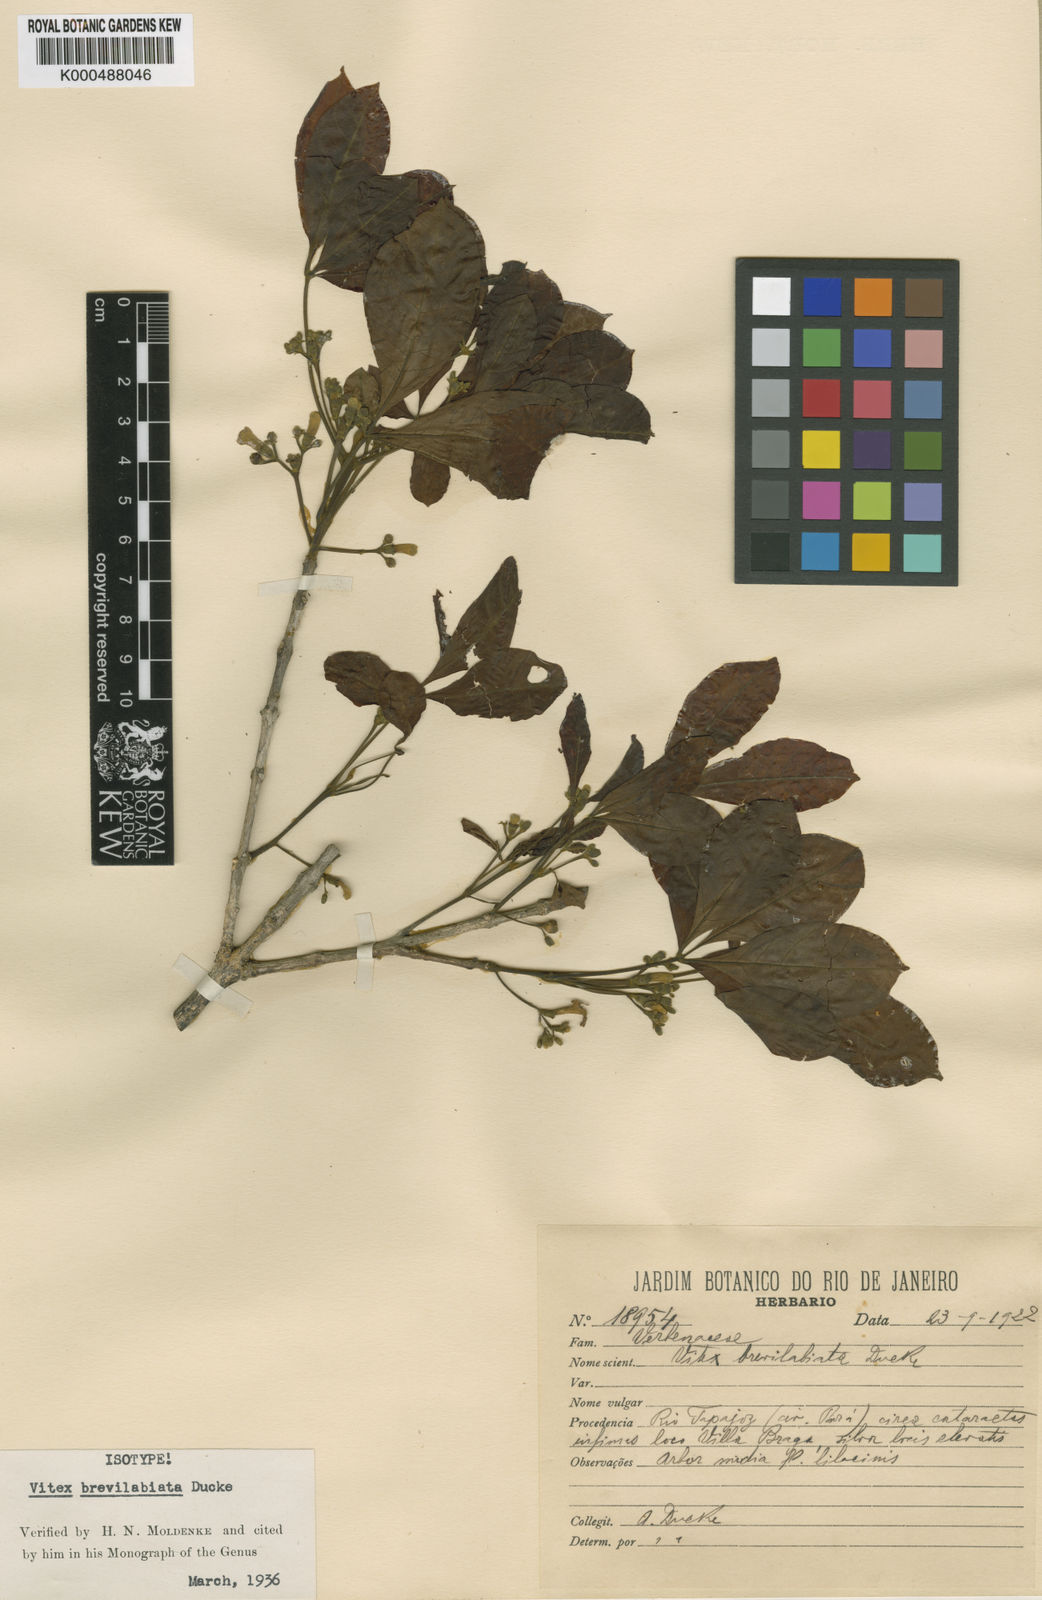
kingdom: Plantae
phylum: Tracheophyta
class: Magnoliopsida
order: Lamiales
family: Lamiaceae
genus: Vitex
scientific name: Vitex brevilabiata
